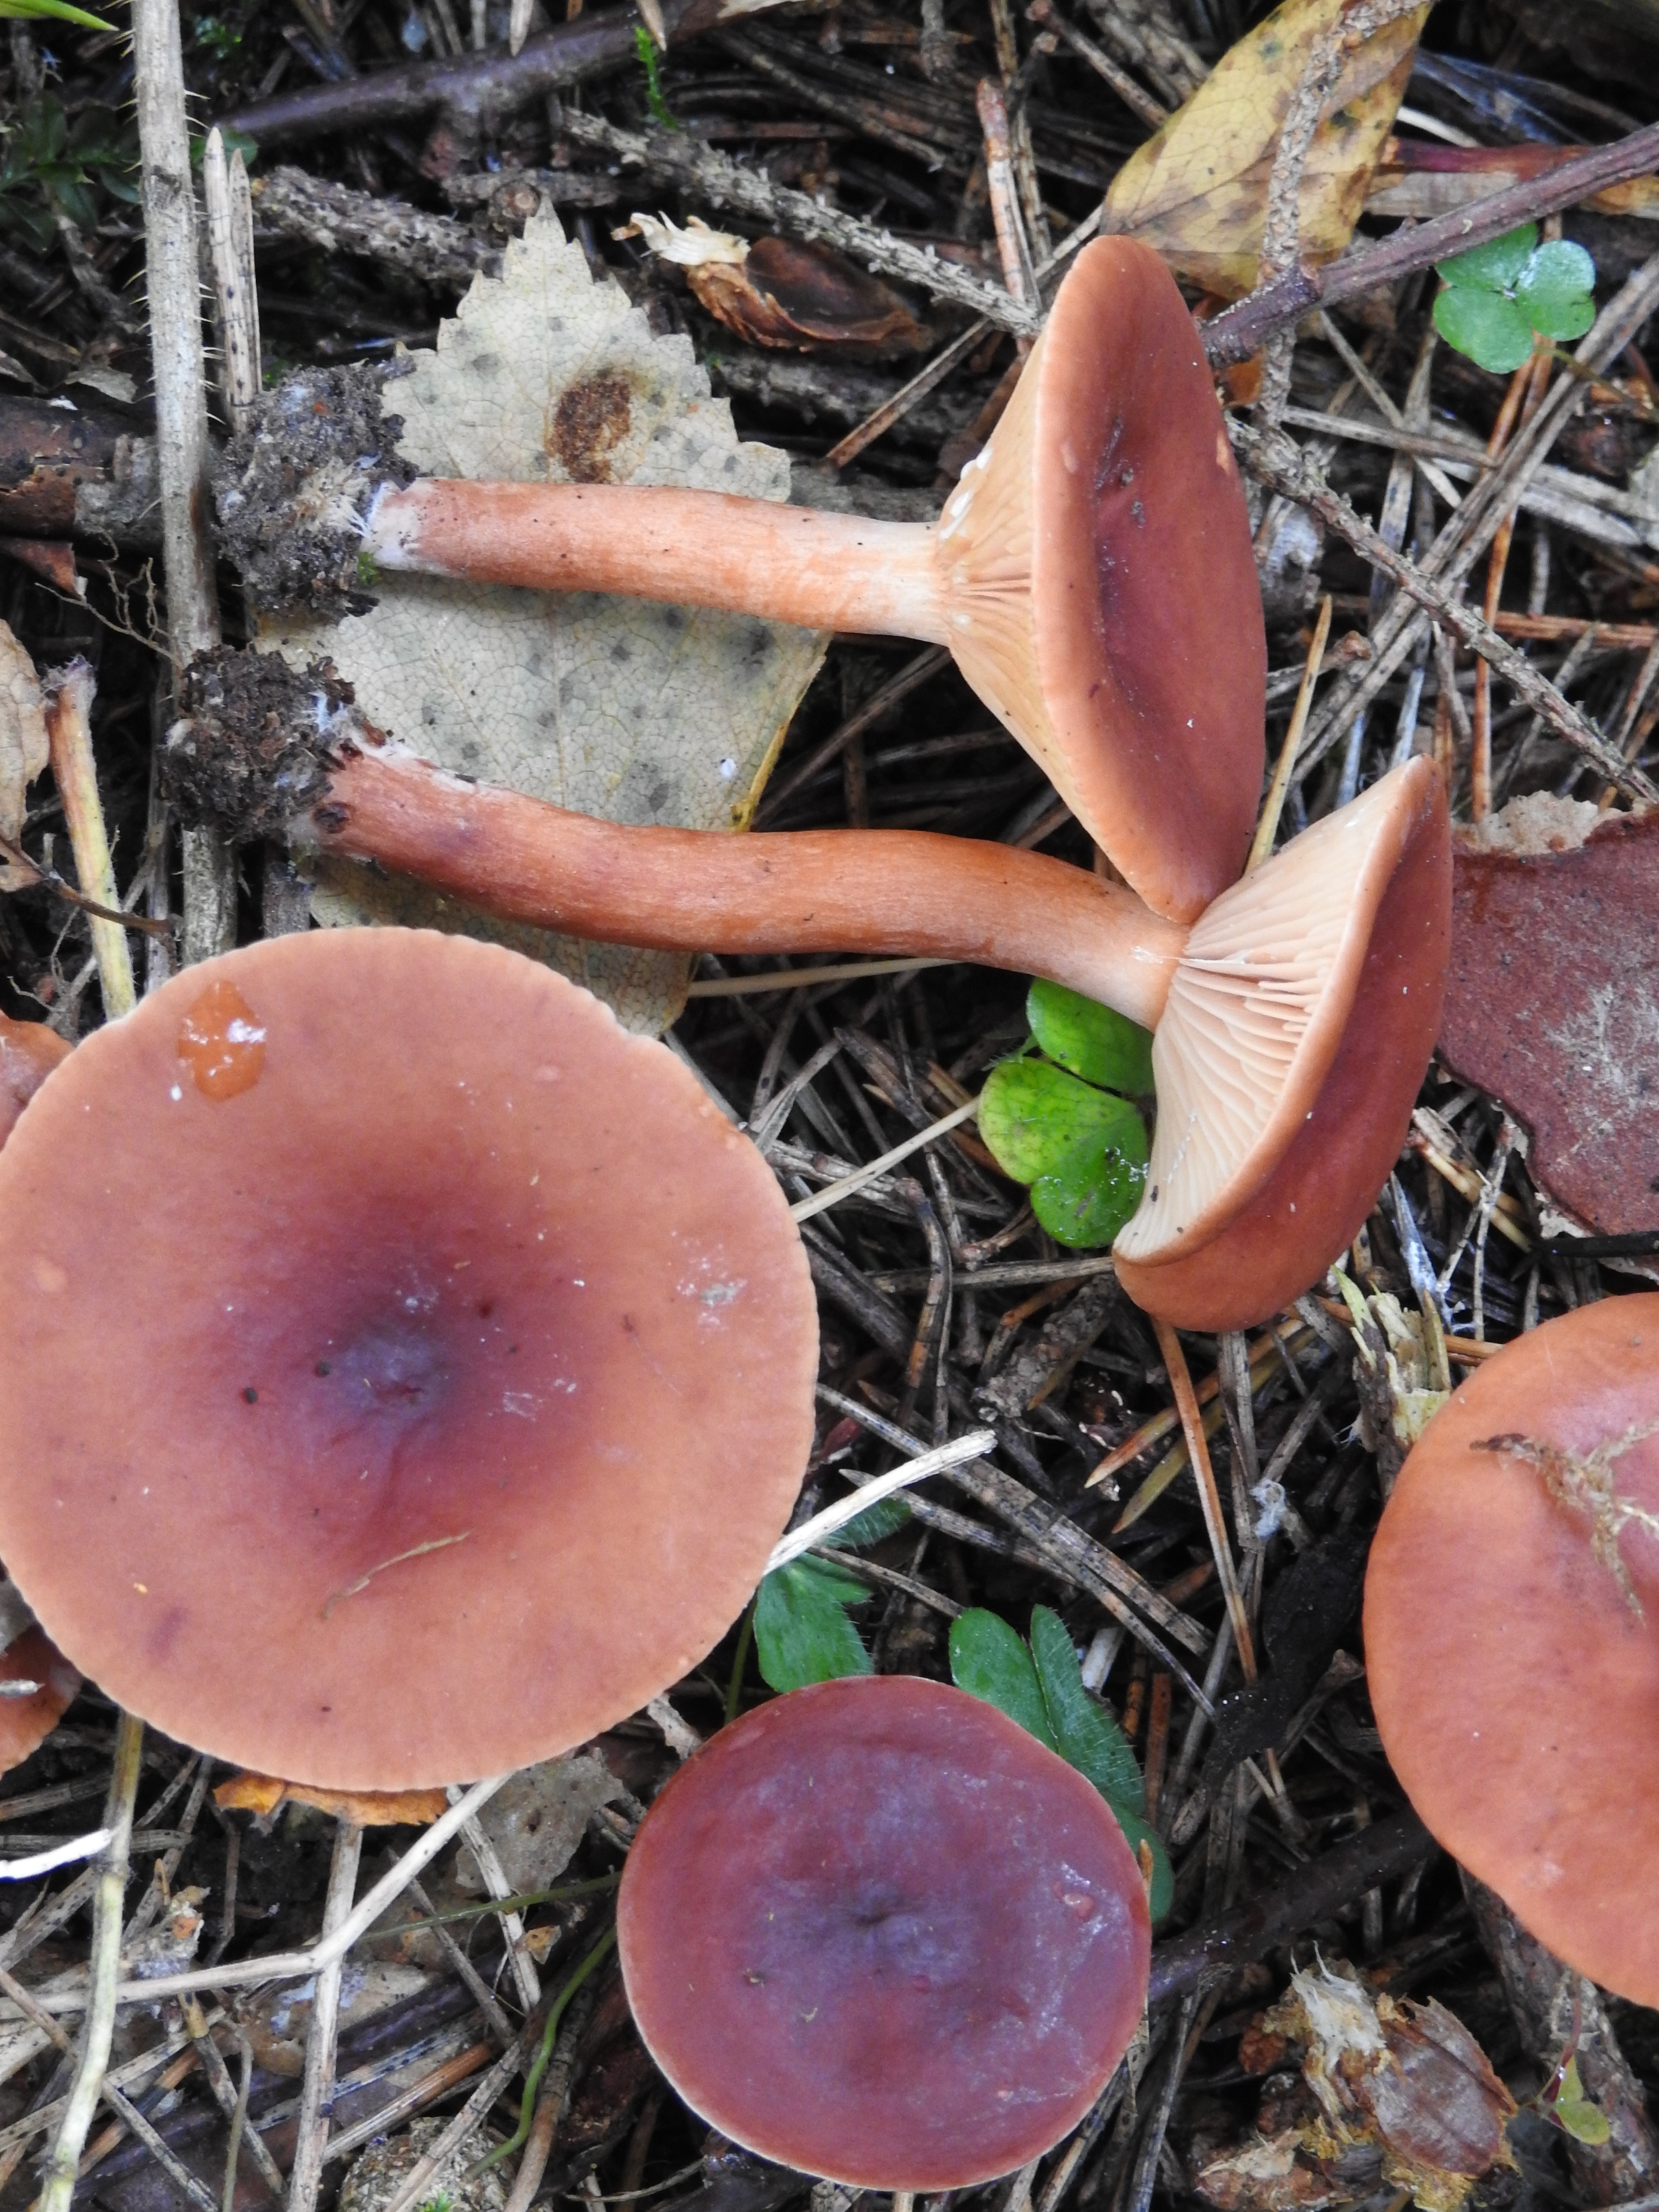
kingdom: Fungi
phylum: Basidiomycota
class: Agaricomycetes
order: Russulales
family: Russulaceae
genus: Lactarius
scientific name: Lactarius badiosanguineus
